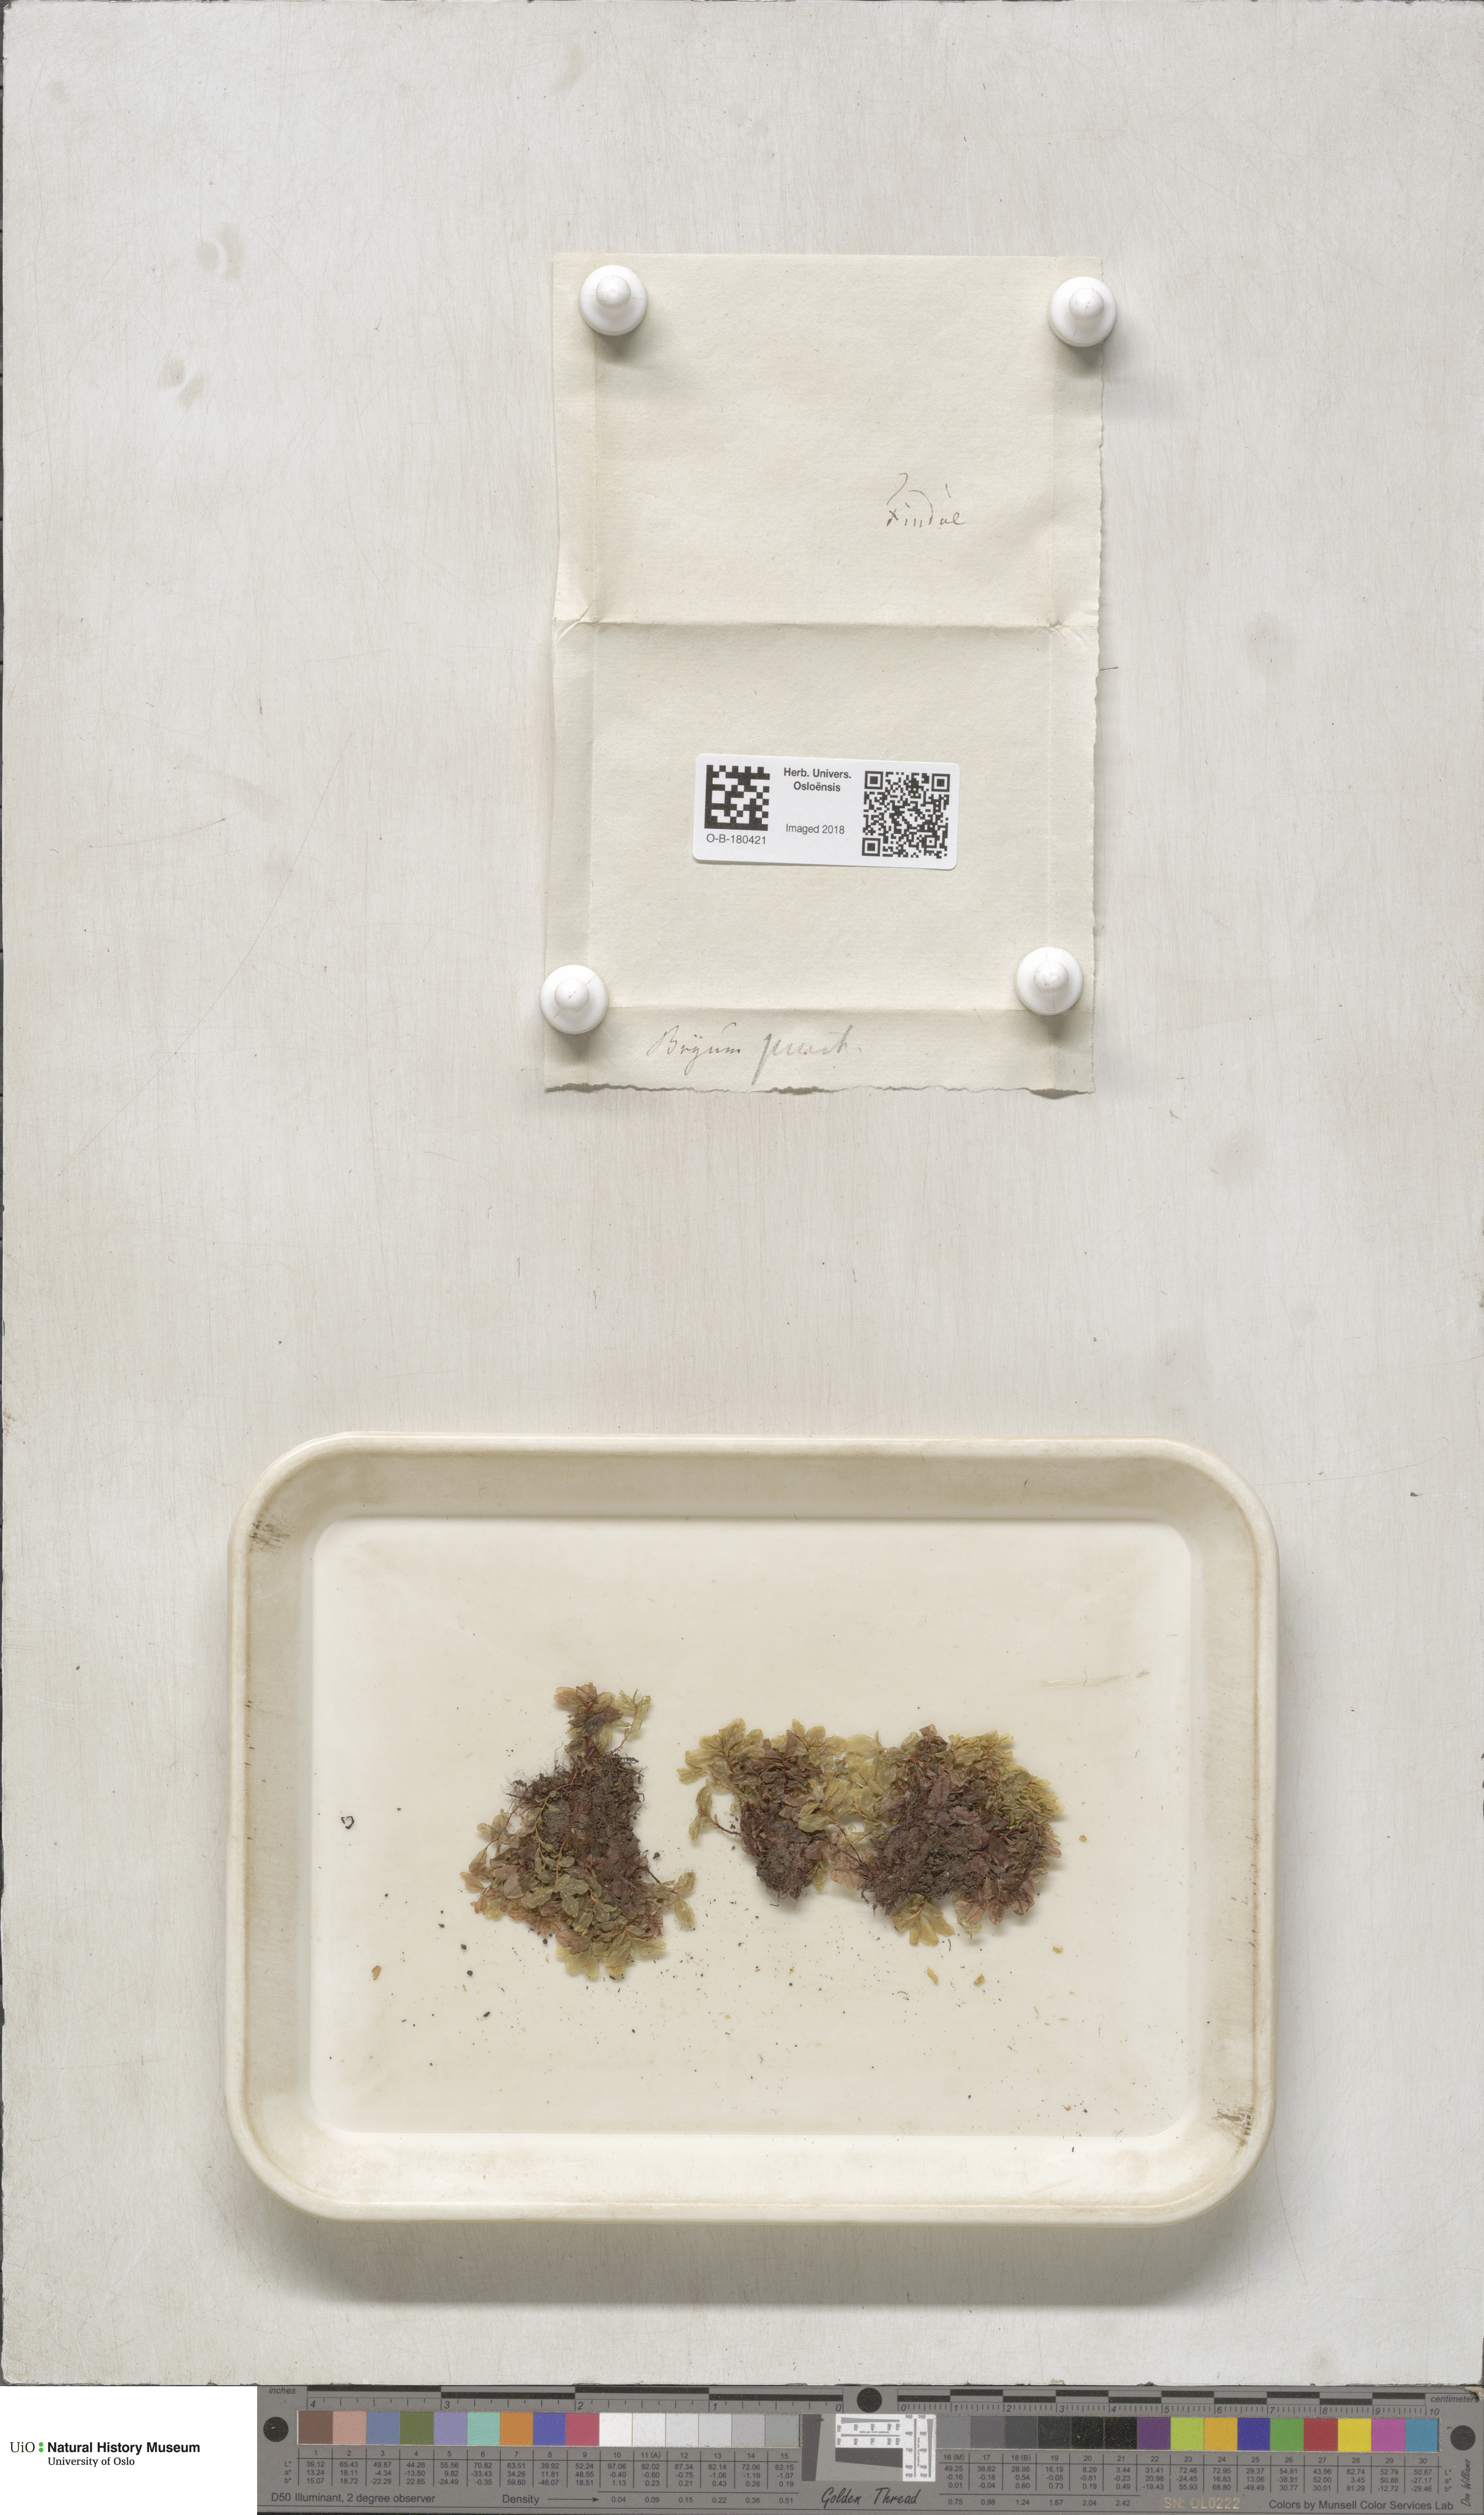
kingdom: Plantae
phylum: Bryophyta
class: Bryopsida
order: Bryales
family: Mniaceae
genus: Rhizomnium
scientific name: Rhizomnium punctatum
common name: Dotted leafy moss
